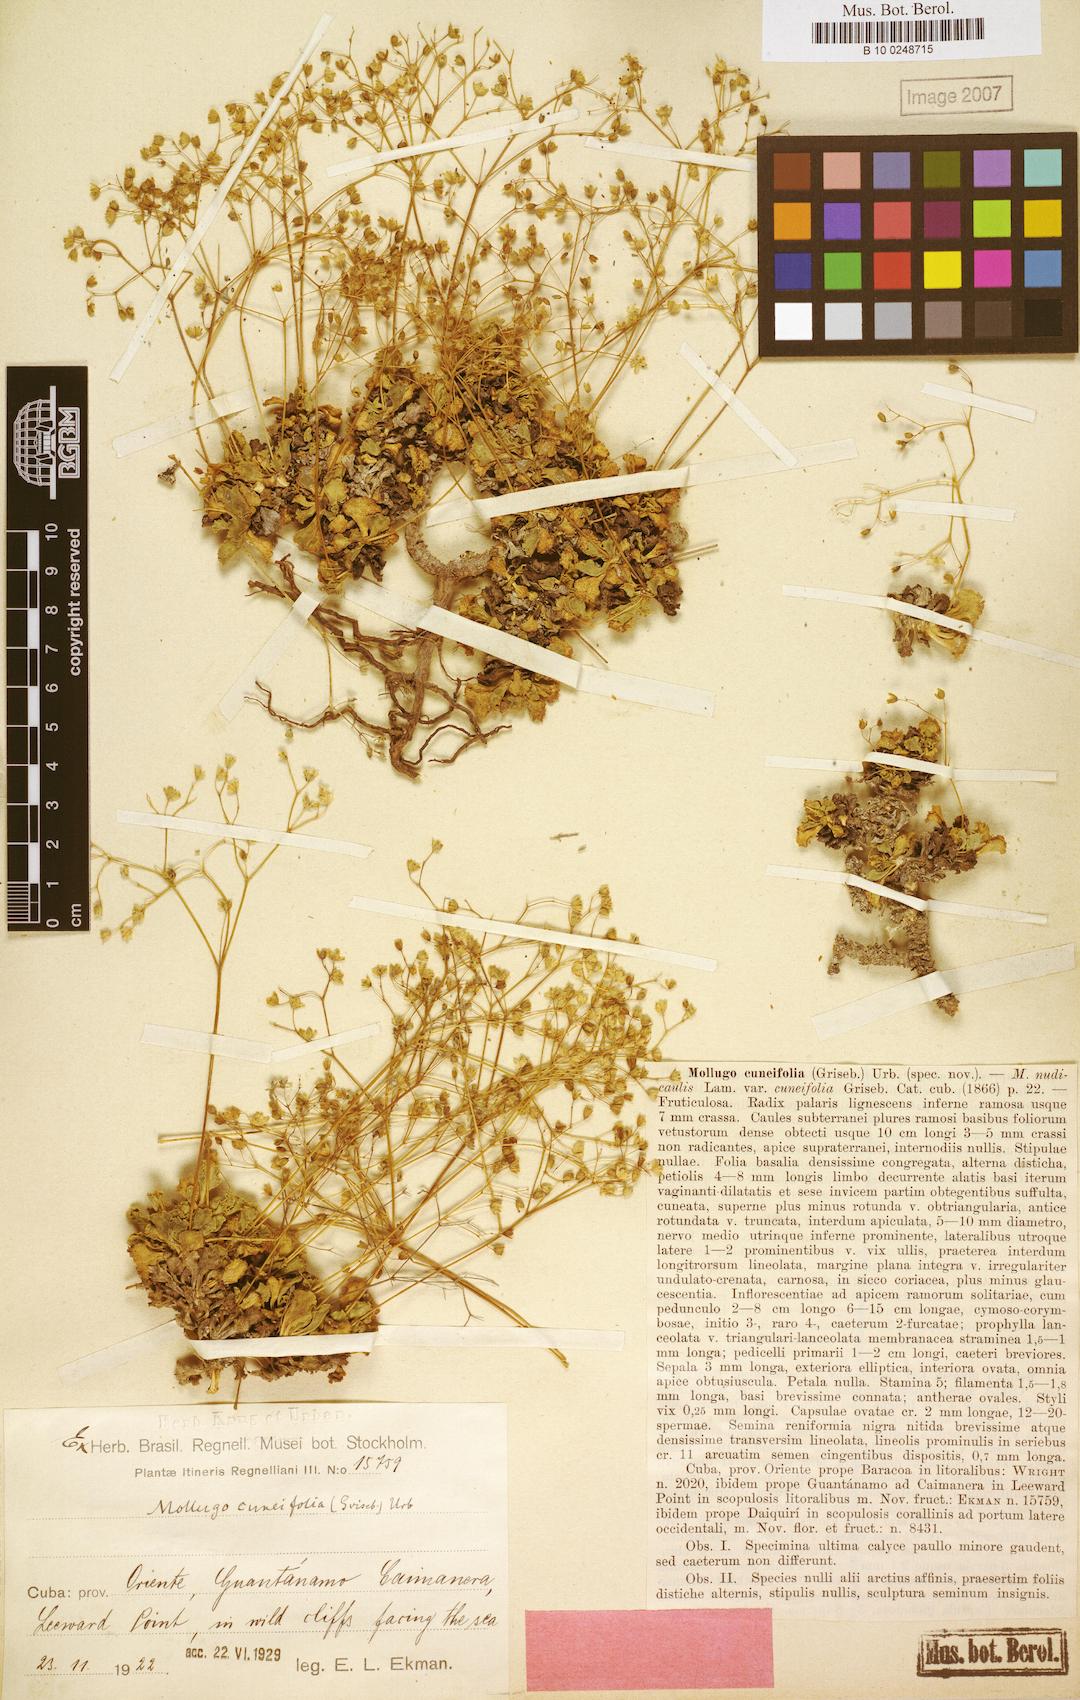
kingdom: Plantae
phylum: Tracheophyta
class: Magnoliopsida
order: Caryophyllales
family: Molluginaceae
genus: Paramollugo
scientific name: Paramollugo cuneifolia
